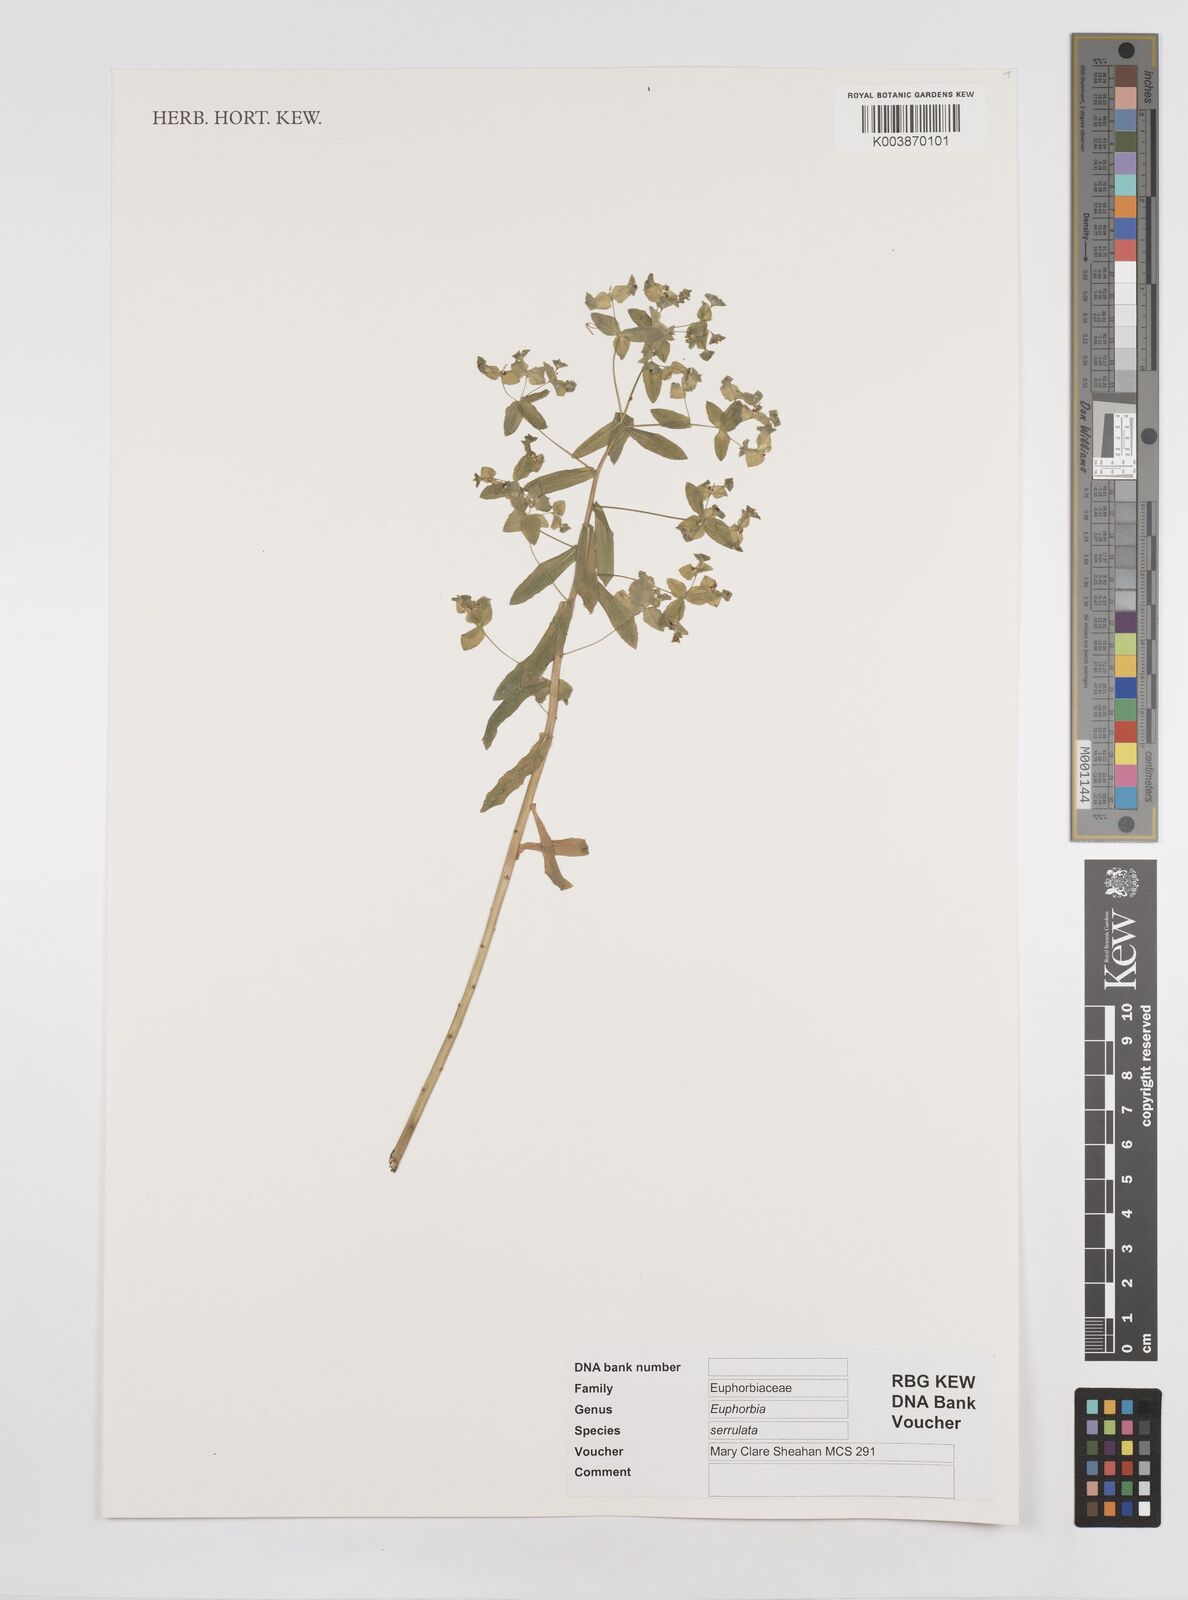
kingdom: Plantae
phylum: Tracheophyta
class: Magnoliopsida
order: Malpighiales
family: Euphorbiaceae
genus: Euphorbia
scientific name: Euphorbia stricta
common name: Upright spurge
